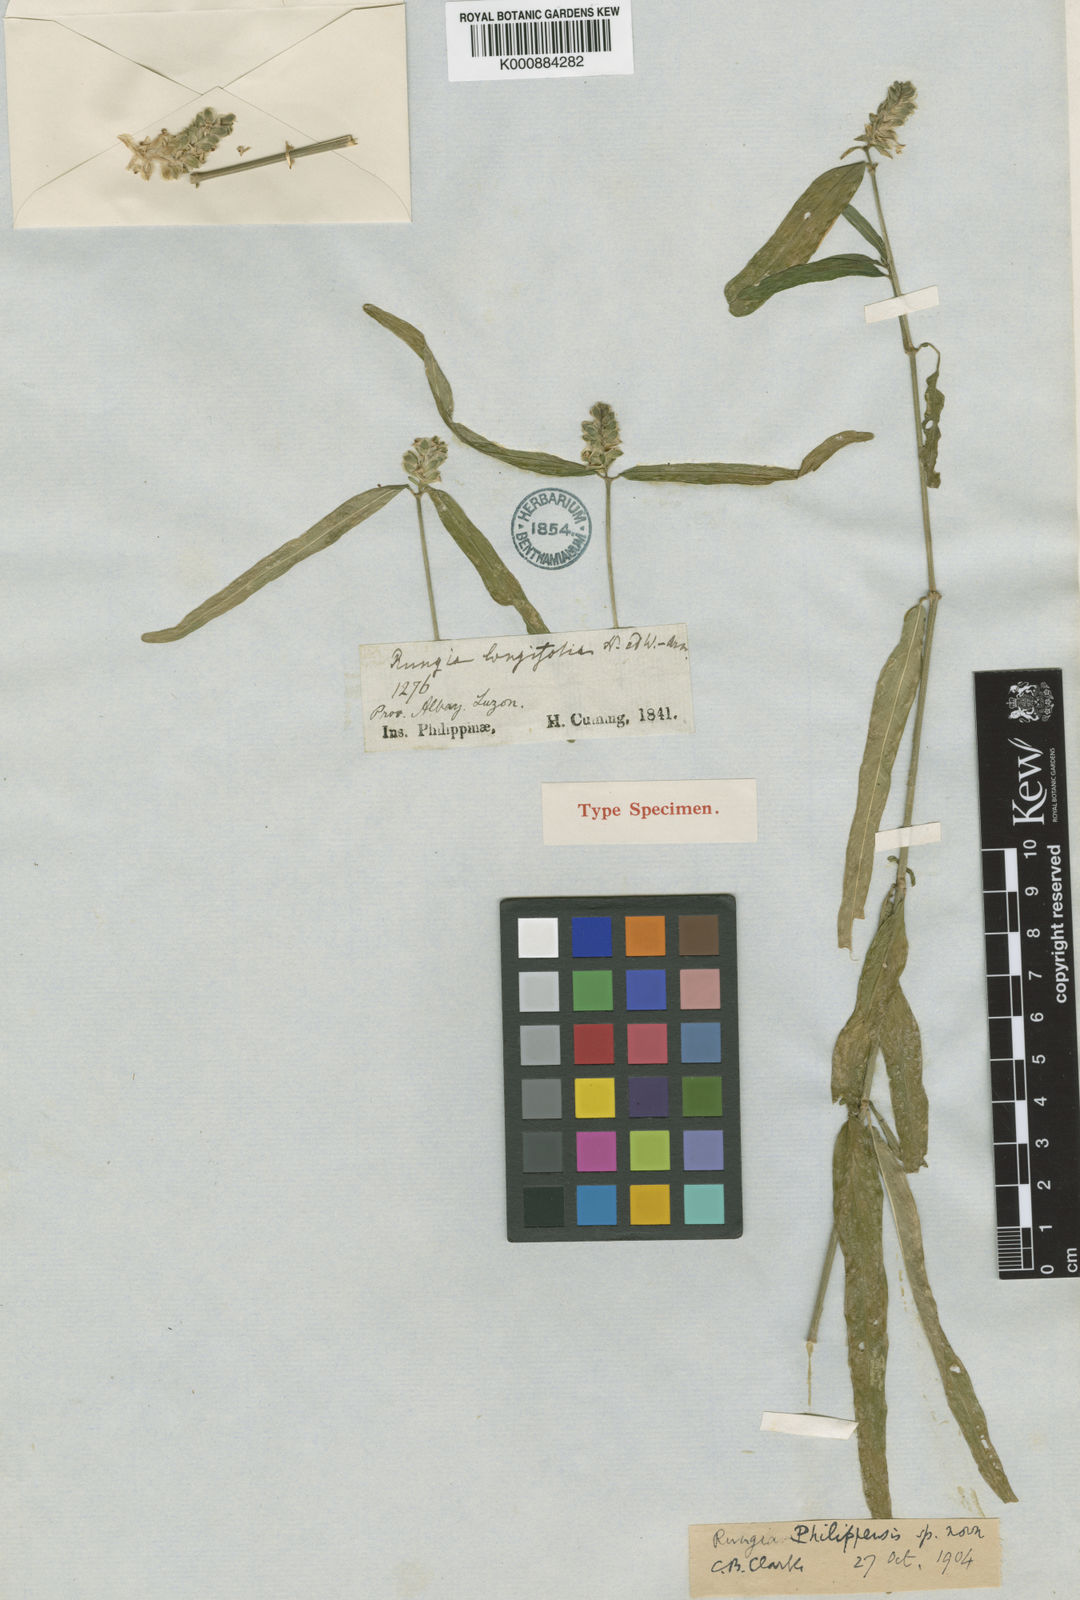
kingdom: Plantae
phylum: Tracheophyta
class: Magnoliopsida
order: Lamiales
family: Acanthaceae
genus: Justicia
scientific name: Justicia
